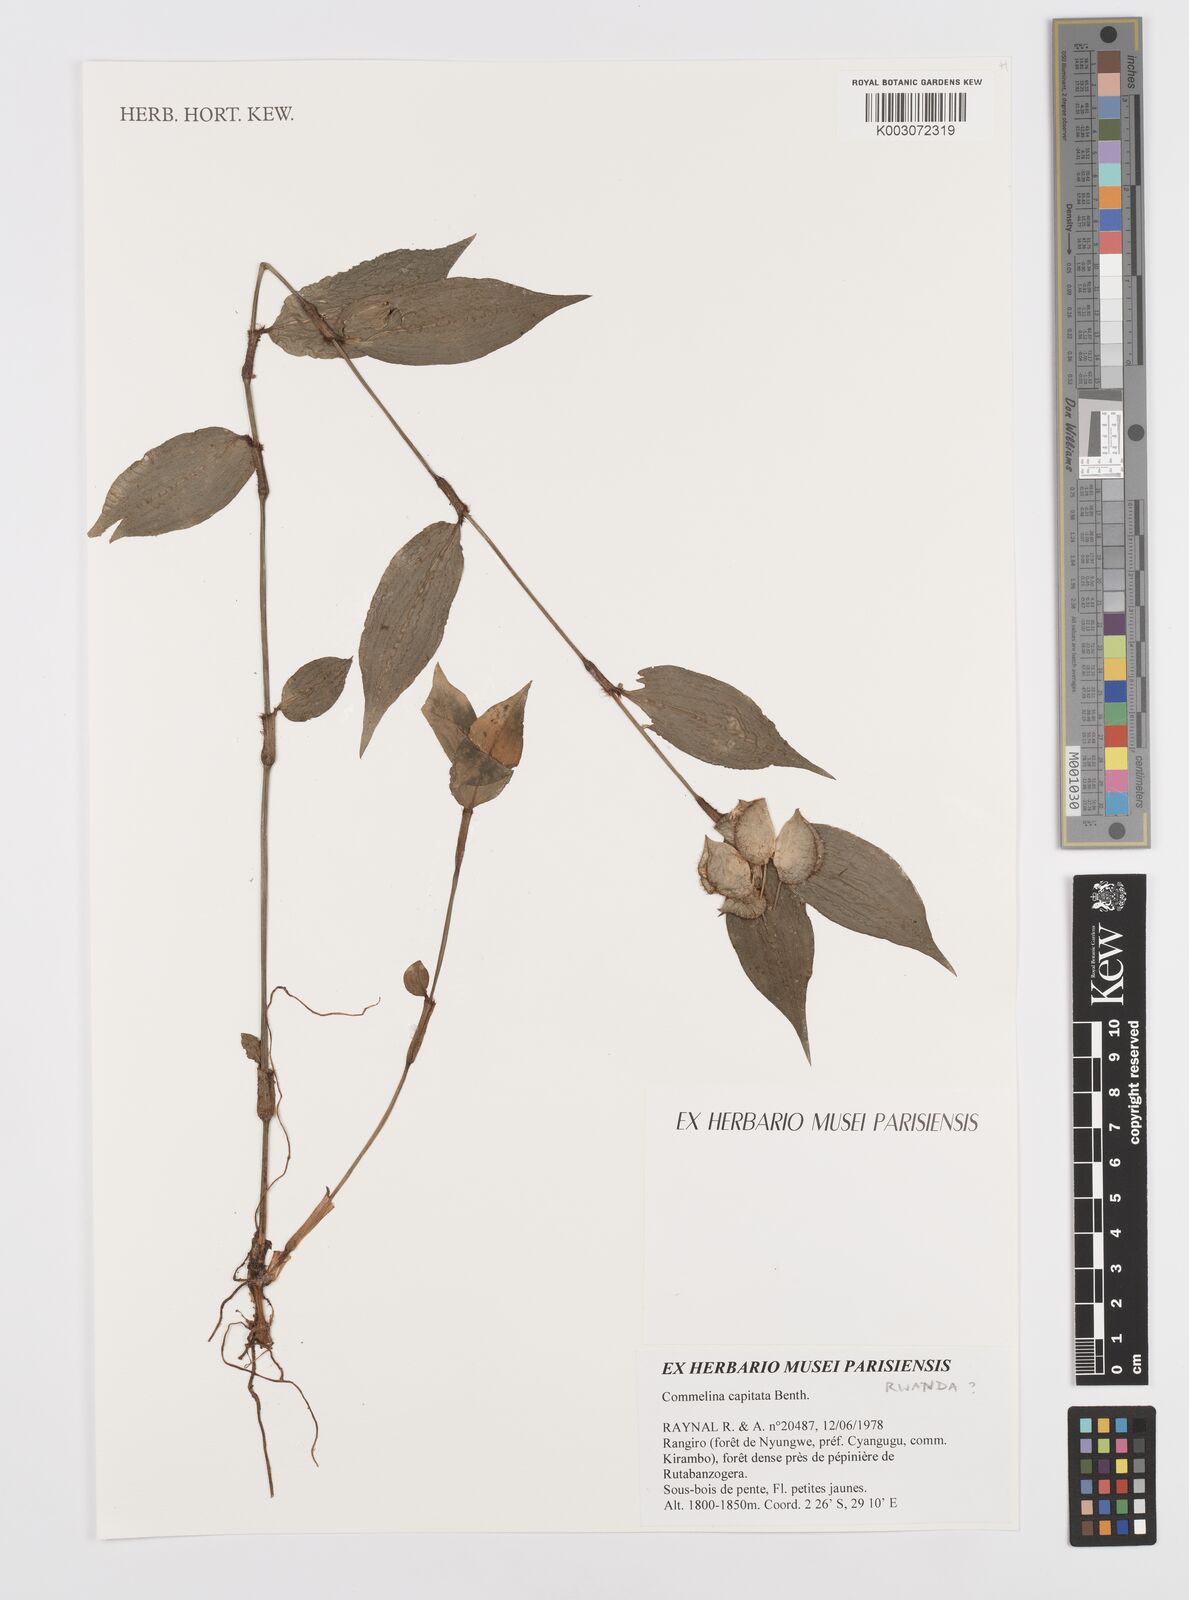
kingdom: Plantae
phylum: Tracheophyta
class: Liliopsida
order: Commelinales
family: Commelinaceae
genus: Commelina
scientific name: Commelina capitata
